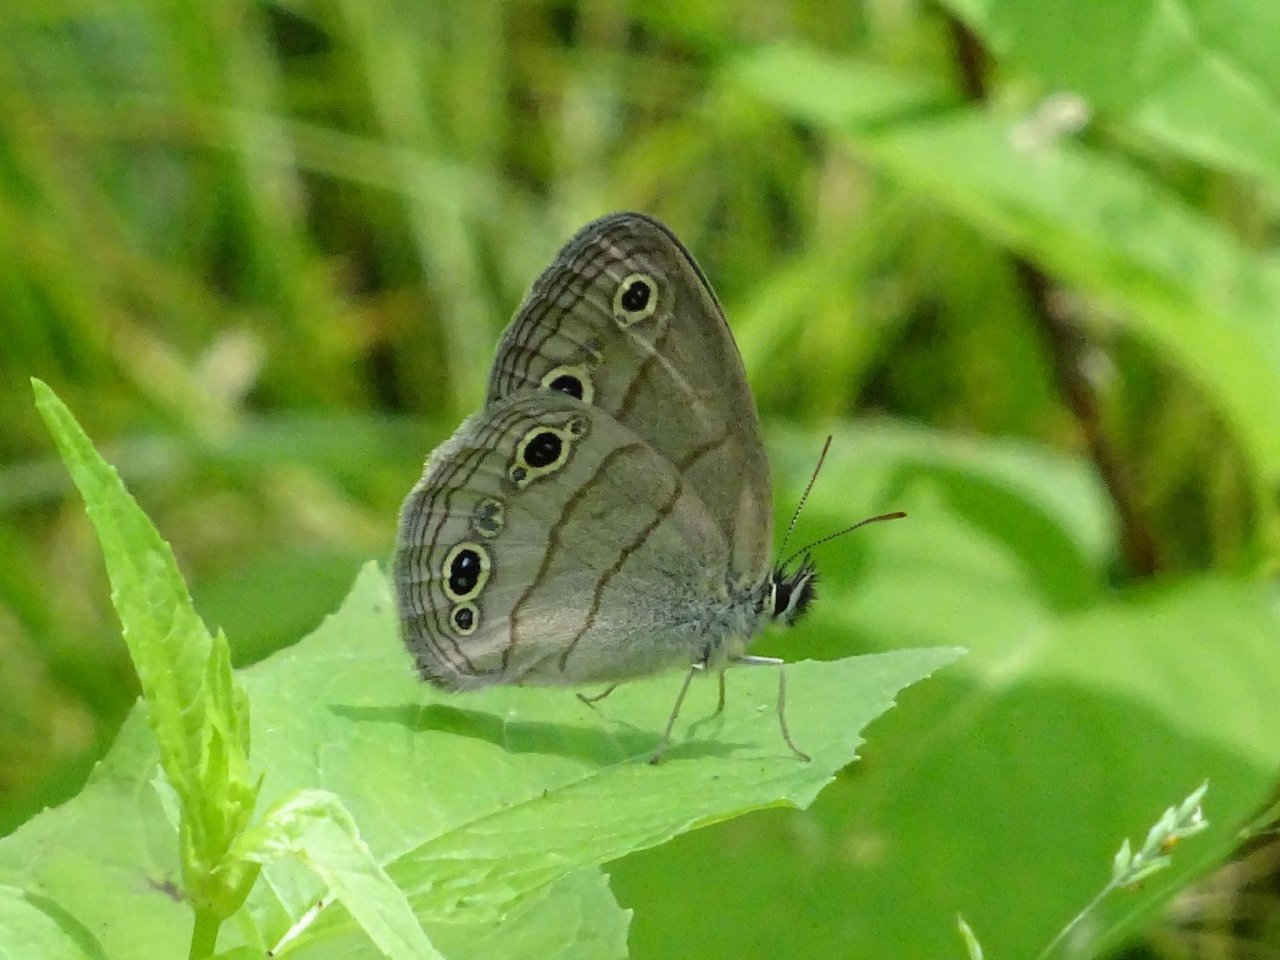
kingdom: Animalia
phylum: Arthropoda
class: Insecta
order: Lepidoptera
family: Nymphalidae
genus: Euptychia
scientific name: Euptychia cymela
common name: Little Wood Satyr
